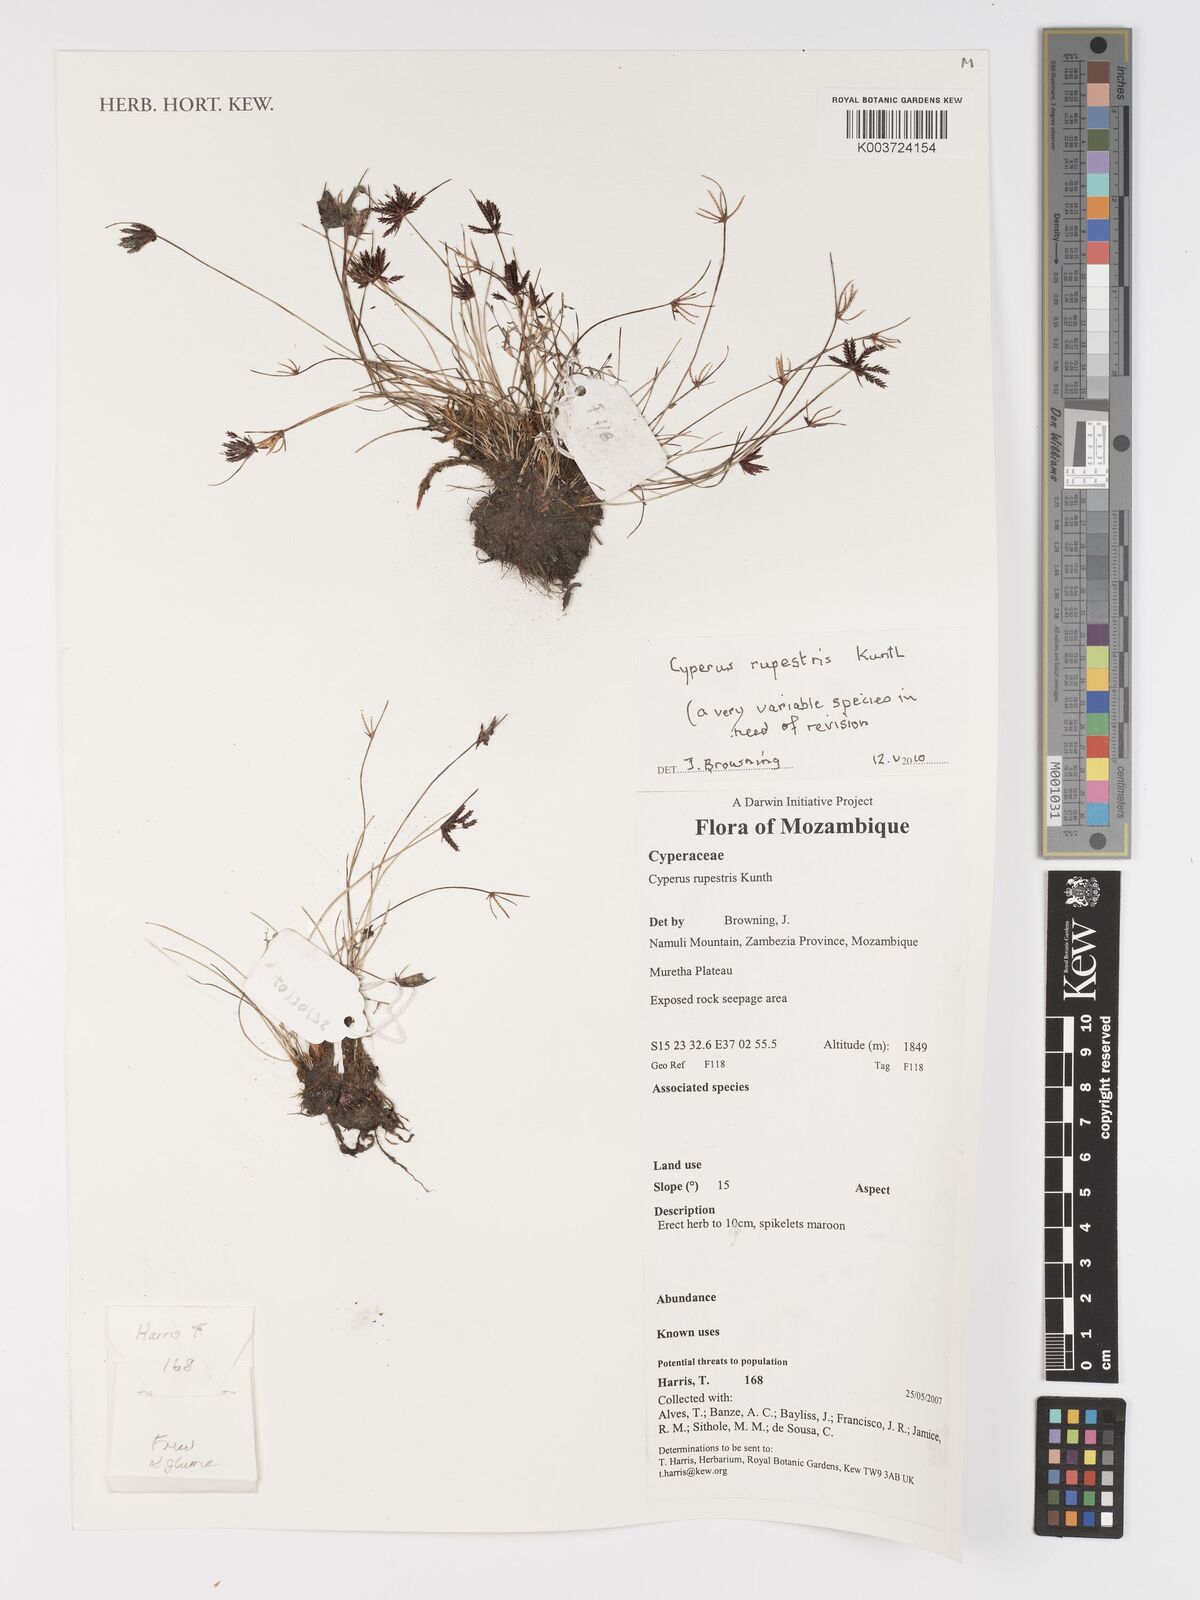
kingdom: Plantae
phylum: Tracheophyta
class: Liliopsida
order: Poales
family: Cyperaceae
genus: Cyperus
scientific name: Cyperus rupestris
